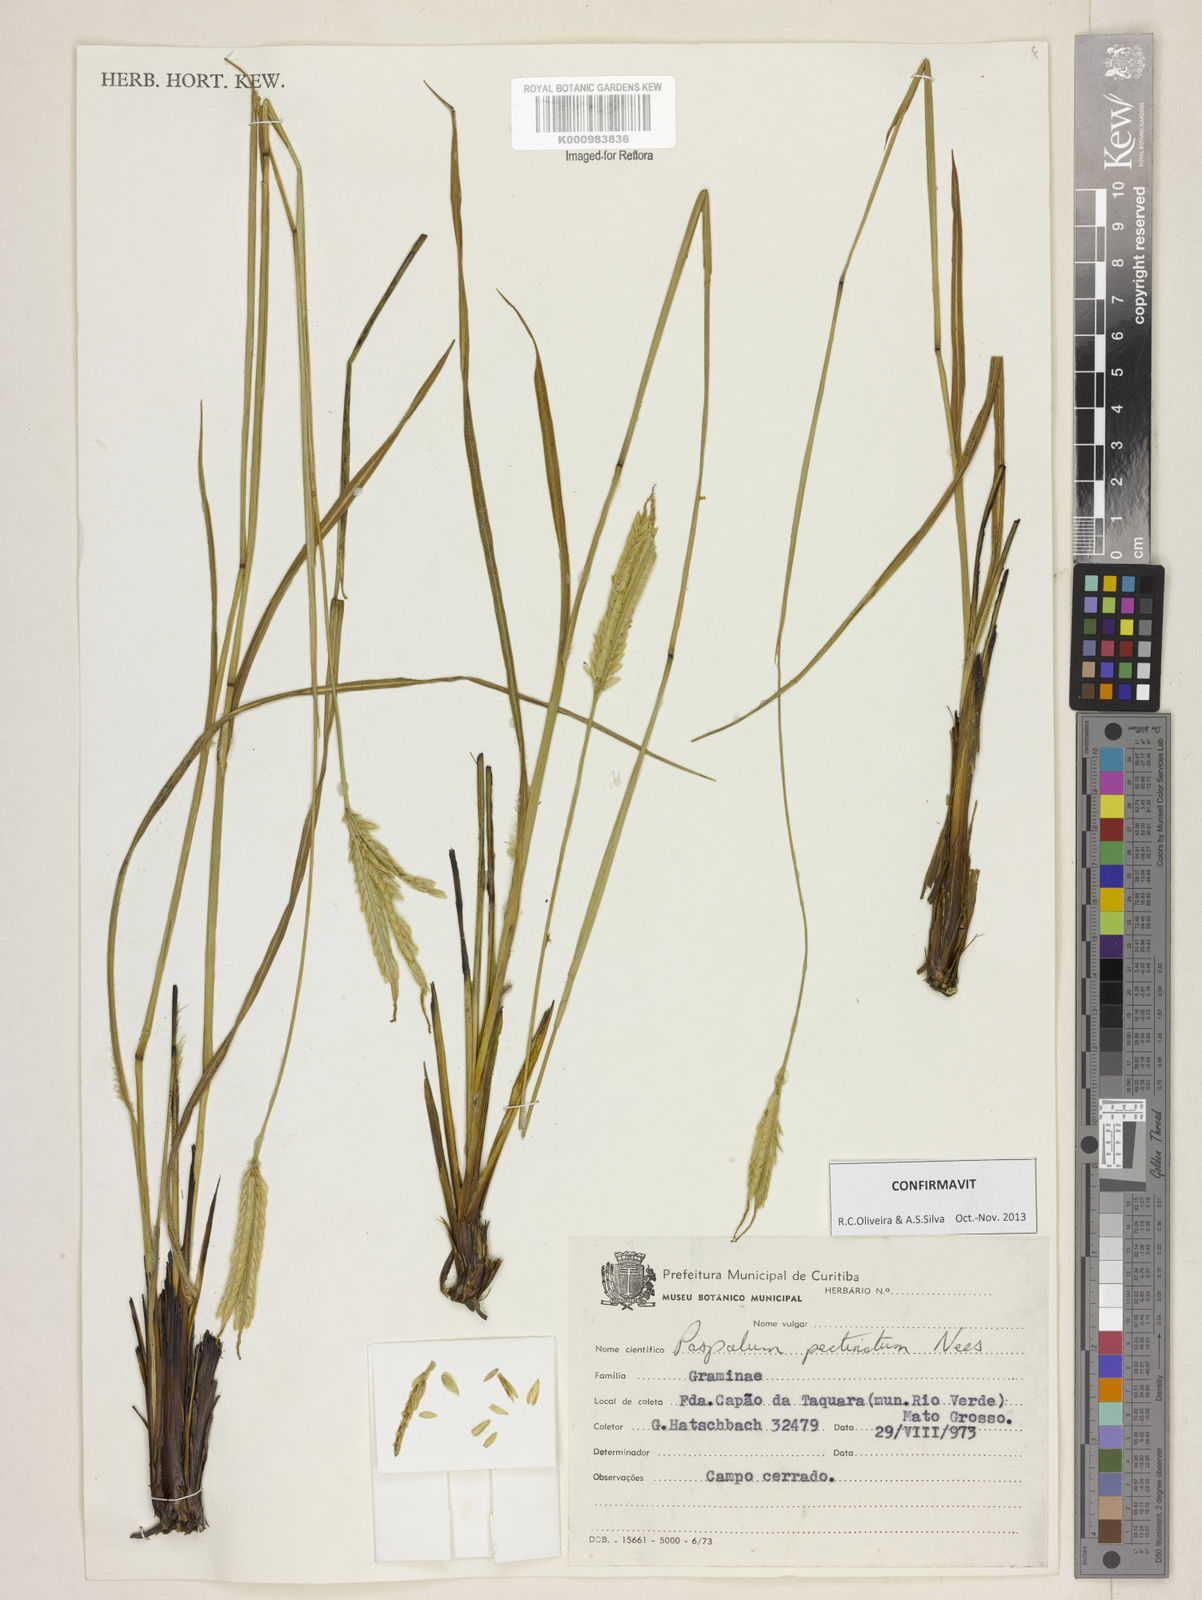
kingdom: Plantae
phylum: Tracheophyta
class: Liliopsida
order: Poales
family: Poaceae
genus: Paspalum
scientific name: Paspalum
